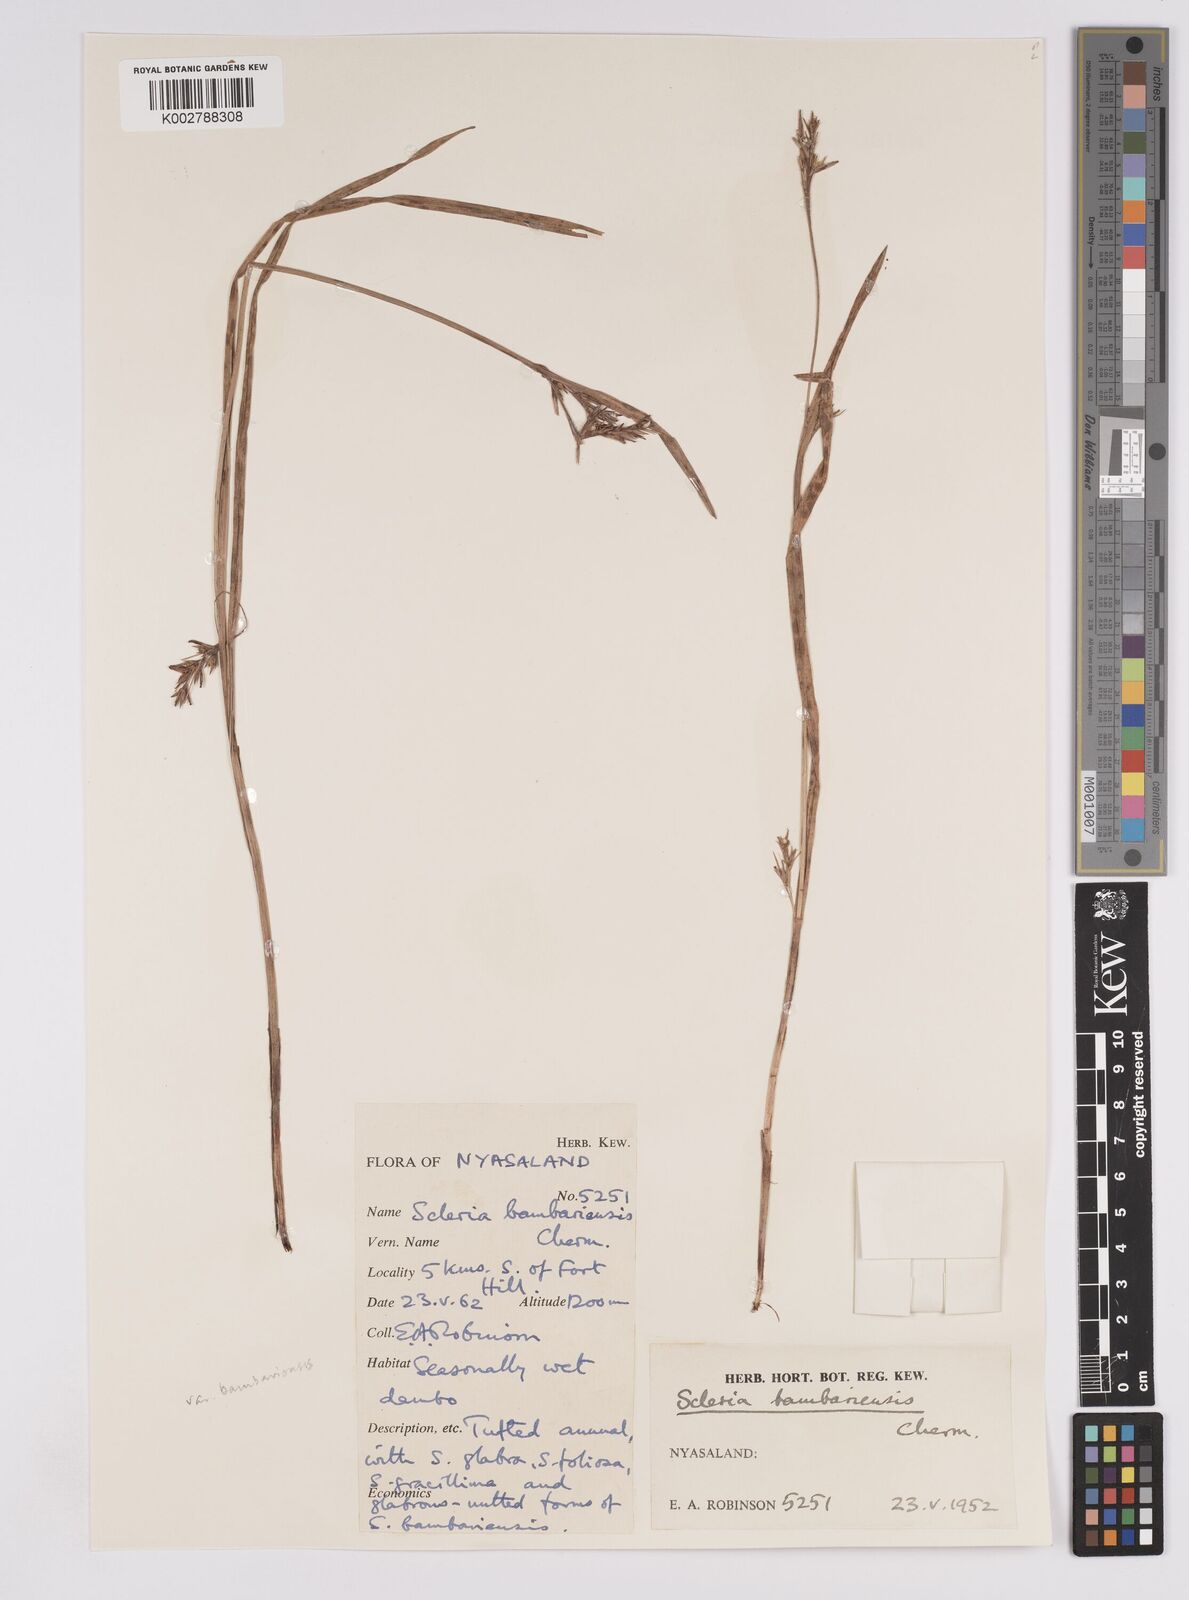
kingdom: Plantae
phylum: Tracheophyta
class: Liliopsida
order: Poales
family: Cyperaceae
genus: Scleria
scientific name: Scleria bambariensis
